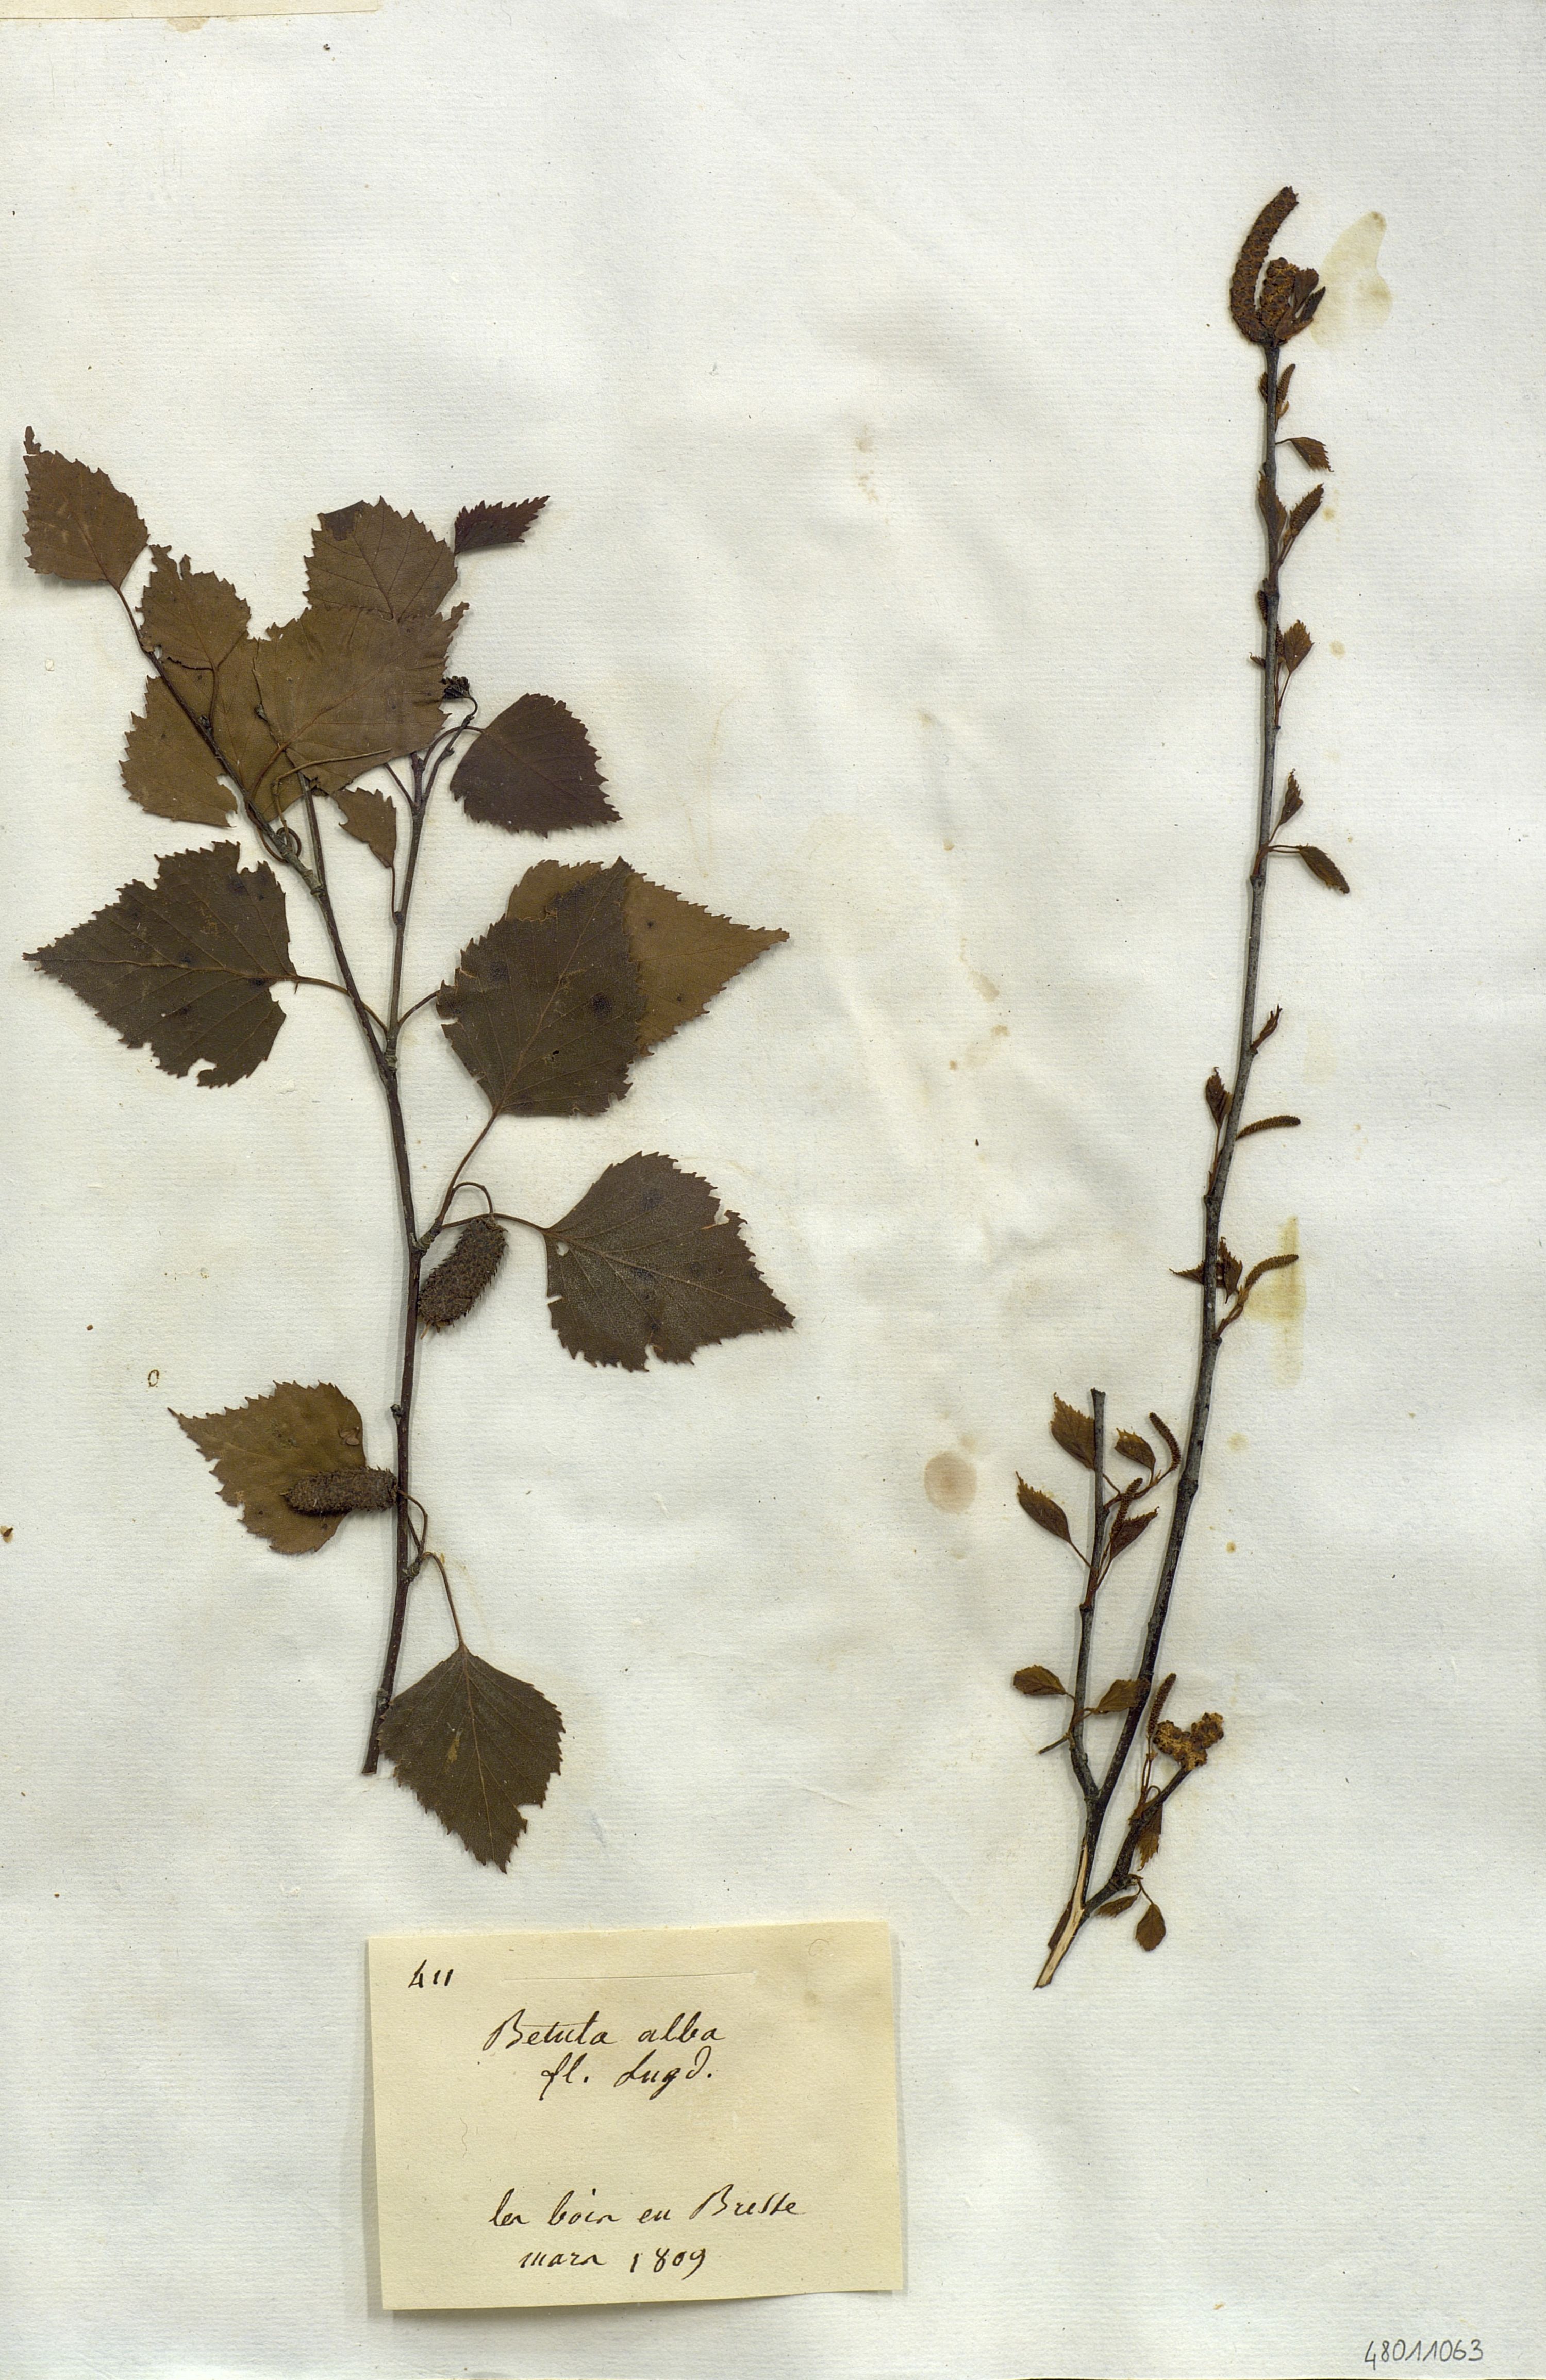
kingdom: Plantae
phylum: Tracheophyta
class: Magnoliopsida
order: Fagales
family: Betulaceae
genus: Betula
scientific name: Betula pubescens
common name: Downy birch
